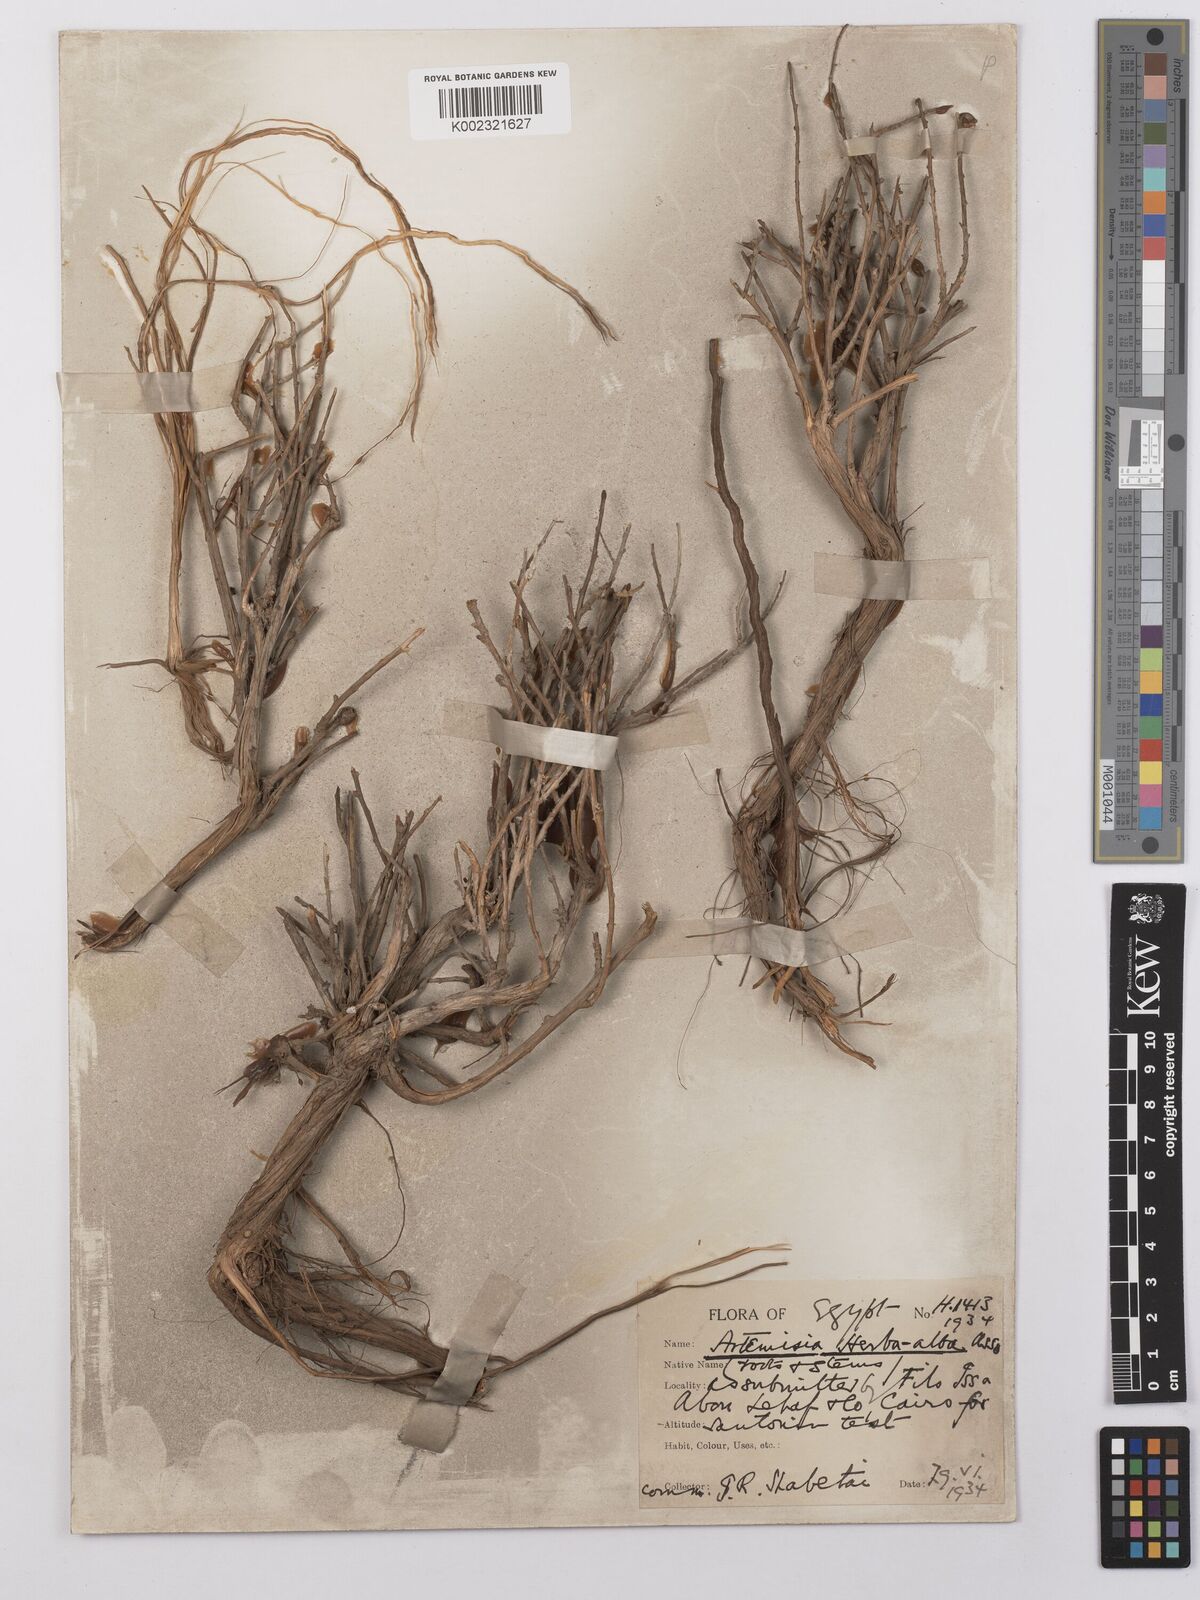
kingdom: Plantae
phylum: Tracheophyta
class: Magnoliopsida
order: Asterales
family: Asteraceae
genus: Artemisia
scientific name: Artemisia herba-alba
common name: White wormwood
